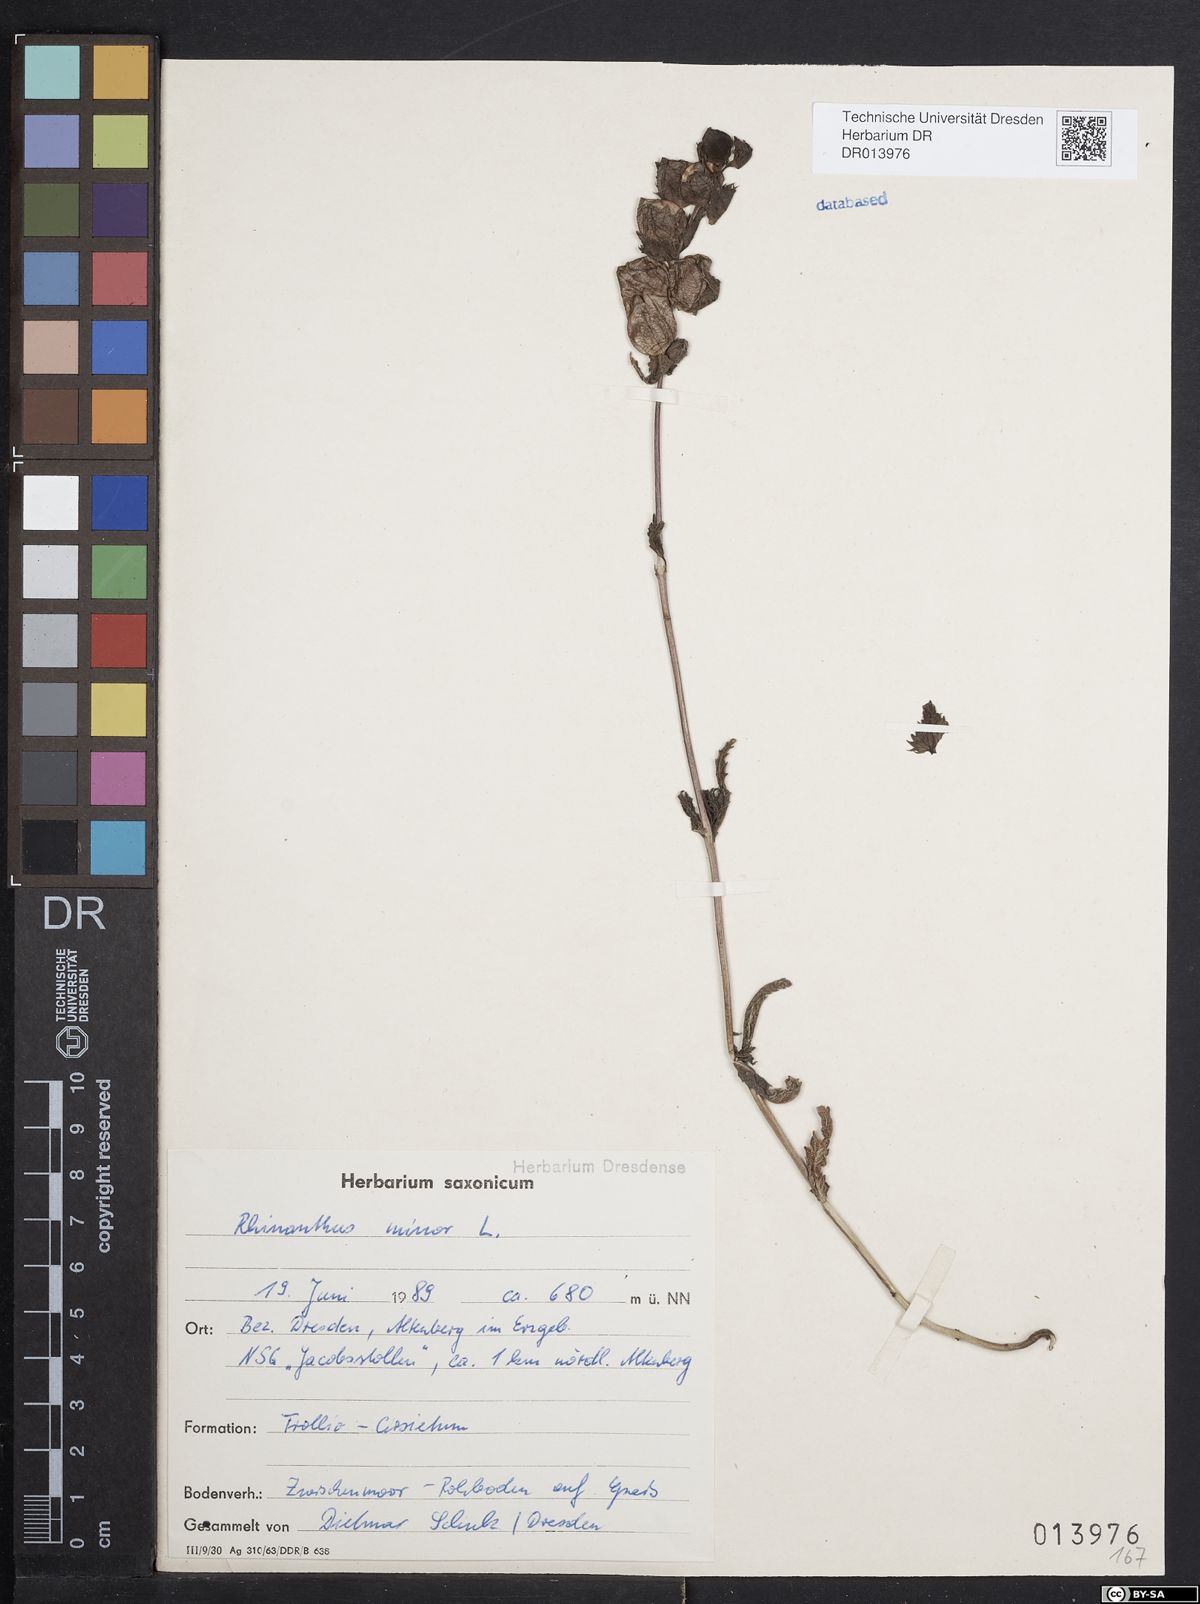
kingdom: Plantae
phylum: Tracheophyta
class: Magnoliopsida
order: Lamiales
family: Orobanchaceae
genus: Rhinanthus
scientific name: Rhinanthus minor
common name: Yellow-rattle
